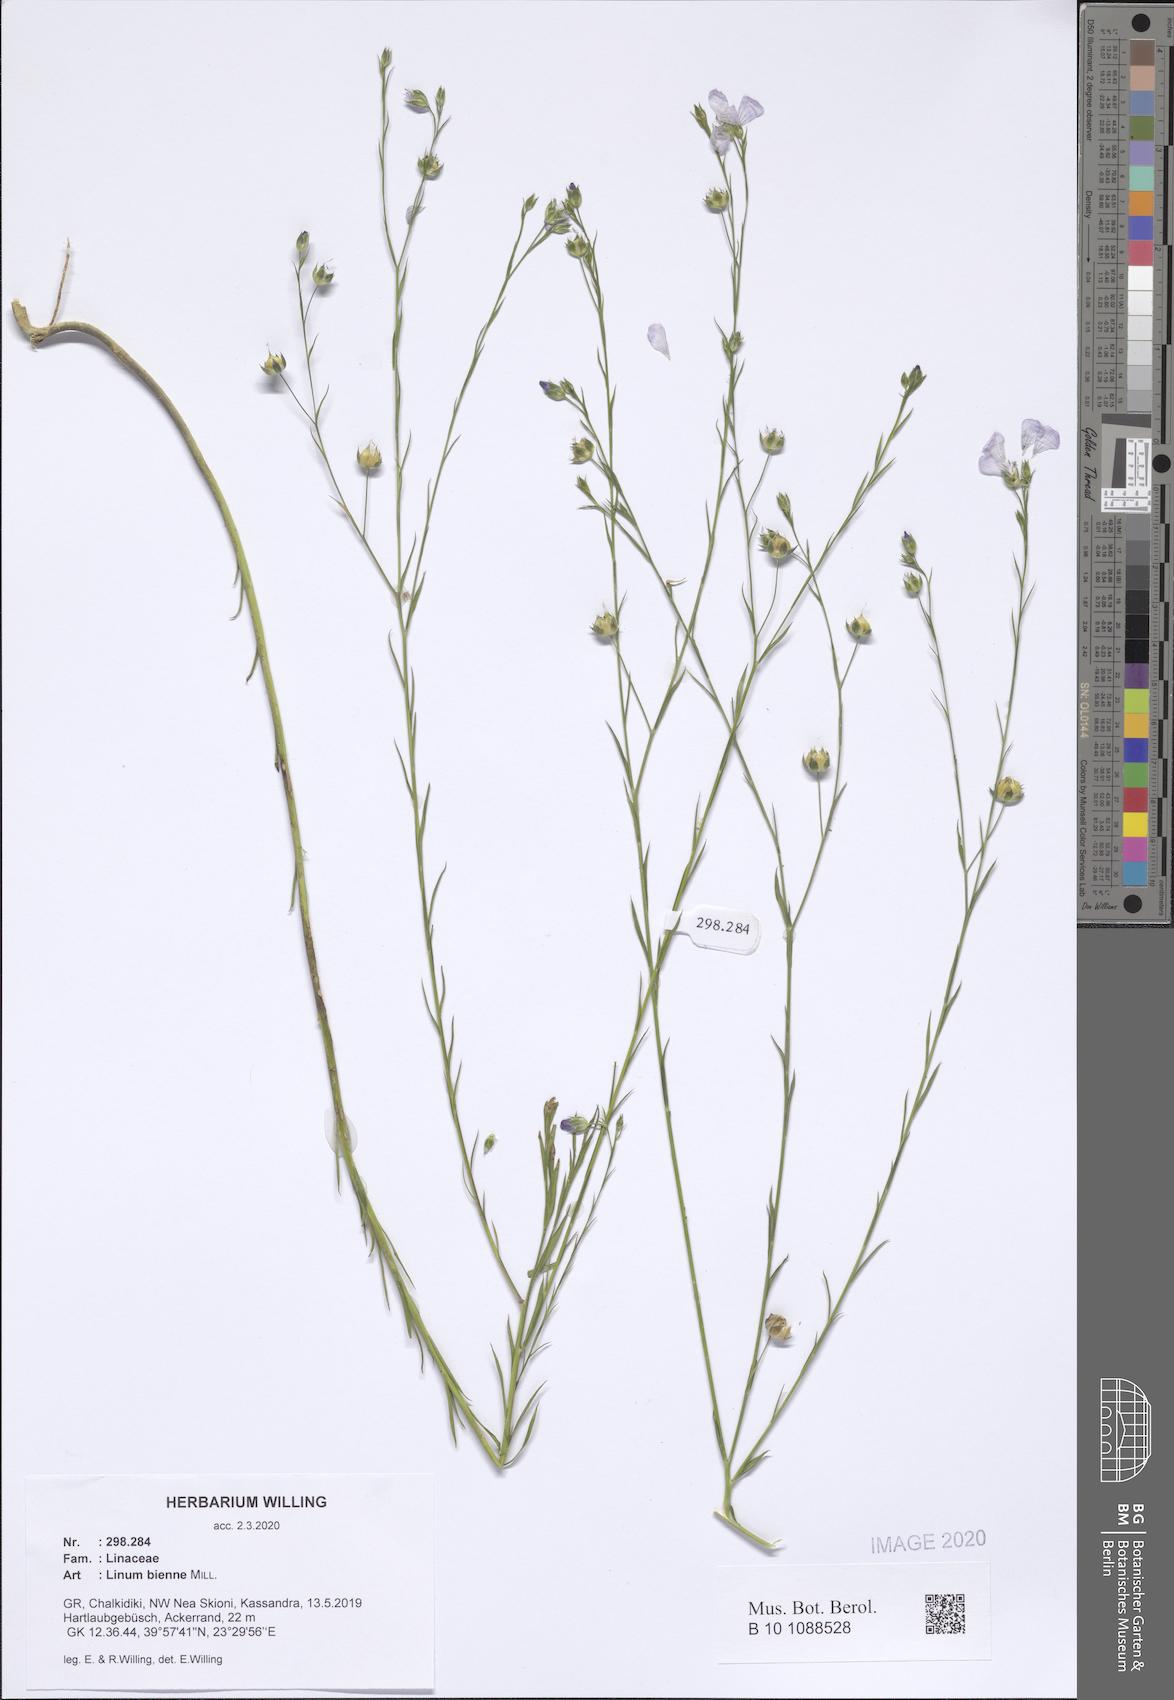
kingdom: Plantae
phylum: Tracheophyta
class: Magnoliopsida
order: Malpighiales
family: Linaceae
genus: Linum
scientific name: Linum bienne
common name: Pale flax
